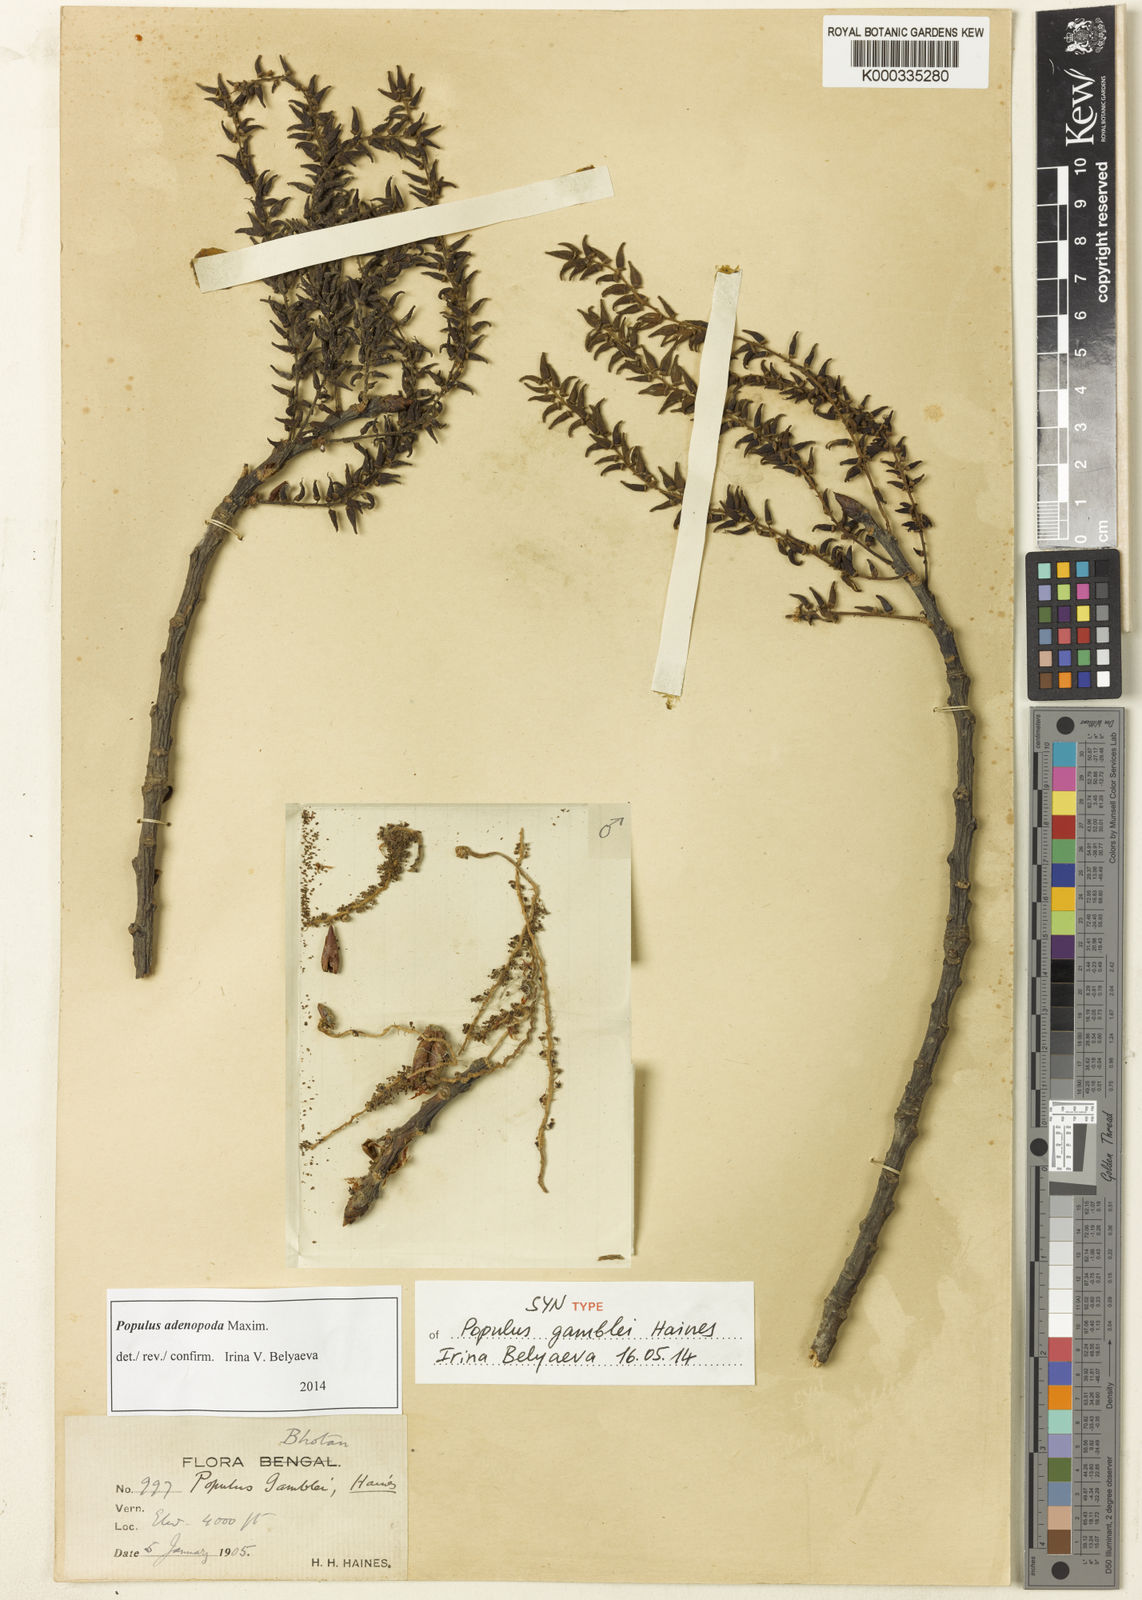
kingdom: Plantae
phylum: Tracheophyta
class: Magnoliopsida
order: Malpighiales
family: Salicaceae
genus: Populus
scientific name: Populus
